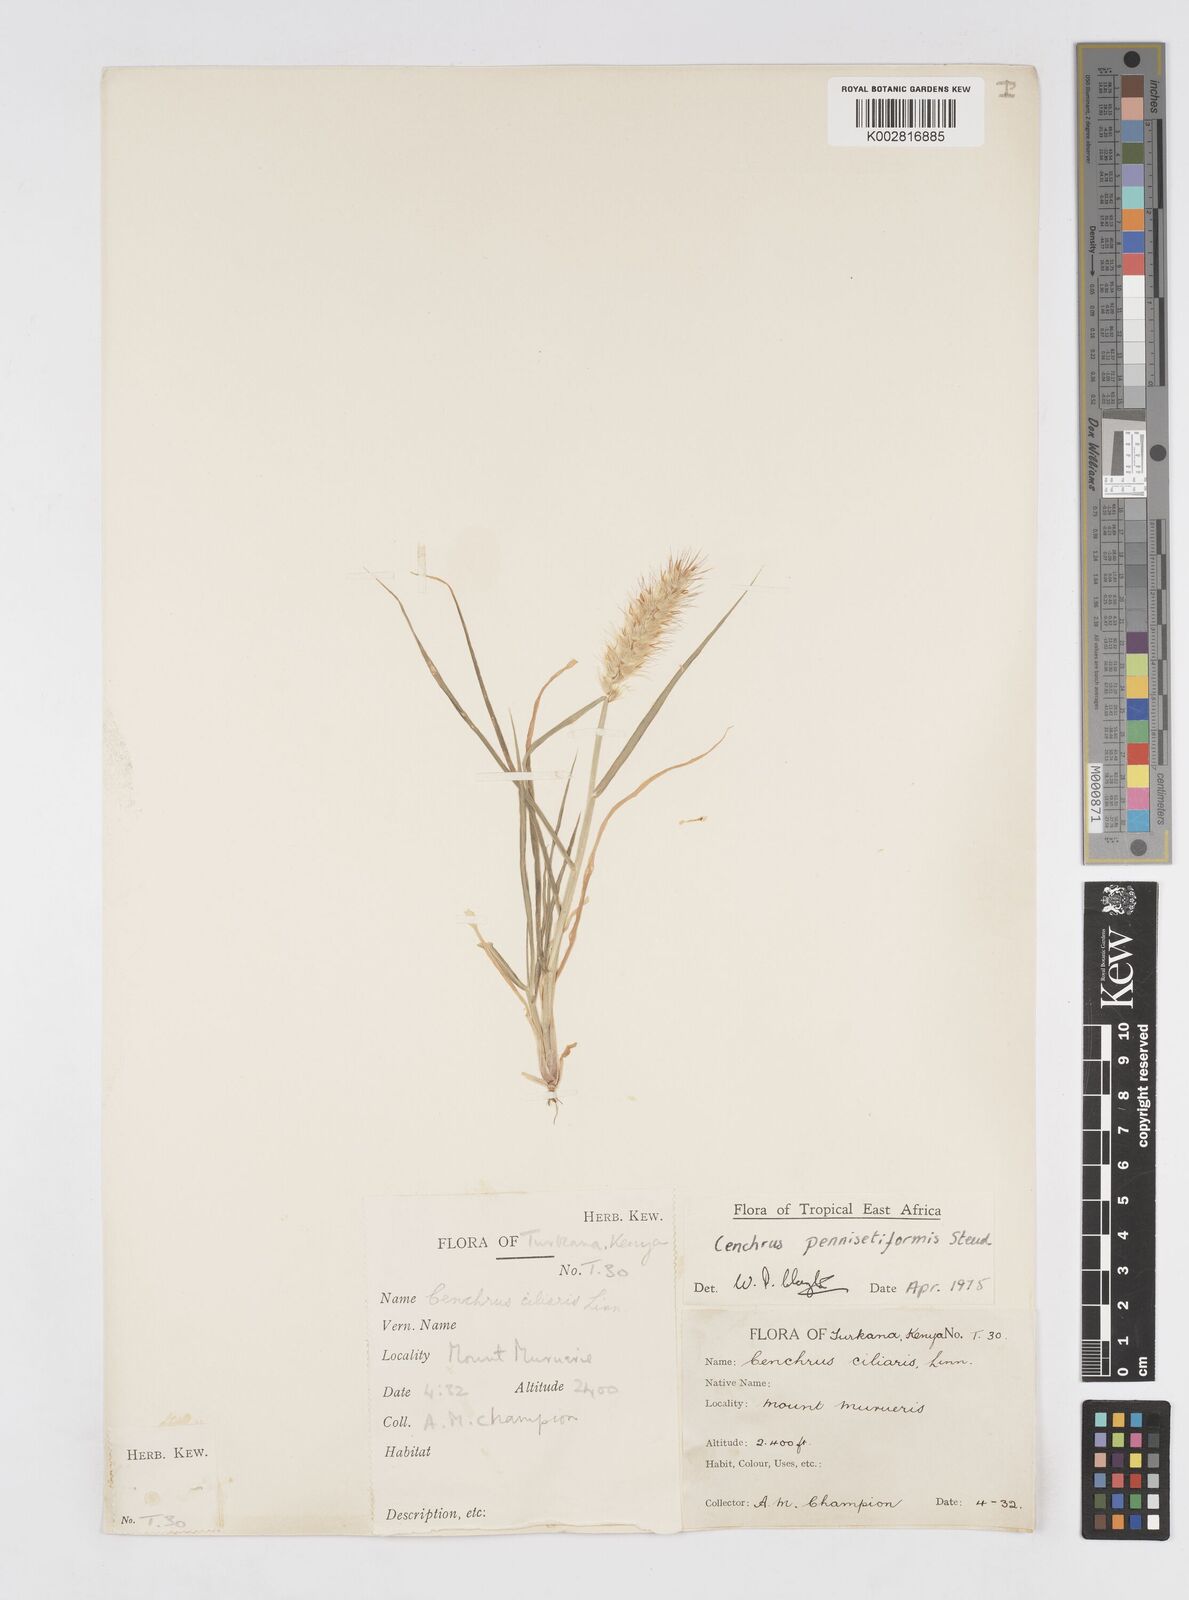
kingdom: Plantae
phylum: Tracheophyta
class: Liliopsida
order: Poales
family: Poaceae
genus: Cenchrus
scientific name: Cenchrus pennisetiformis
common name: Cloncurry
